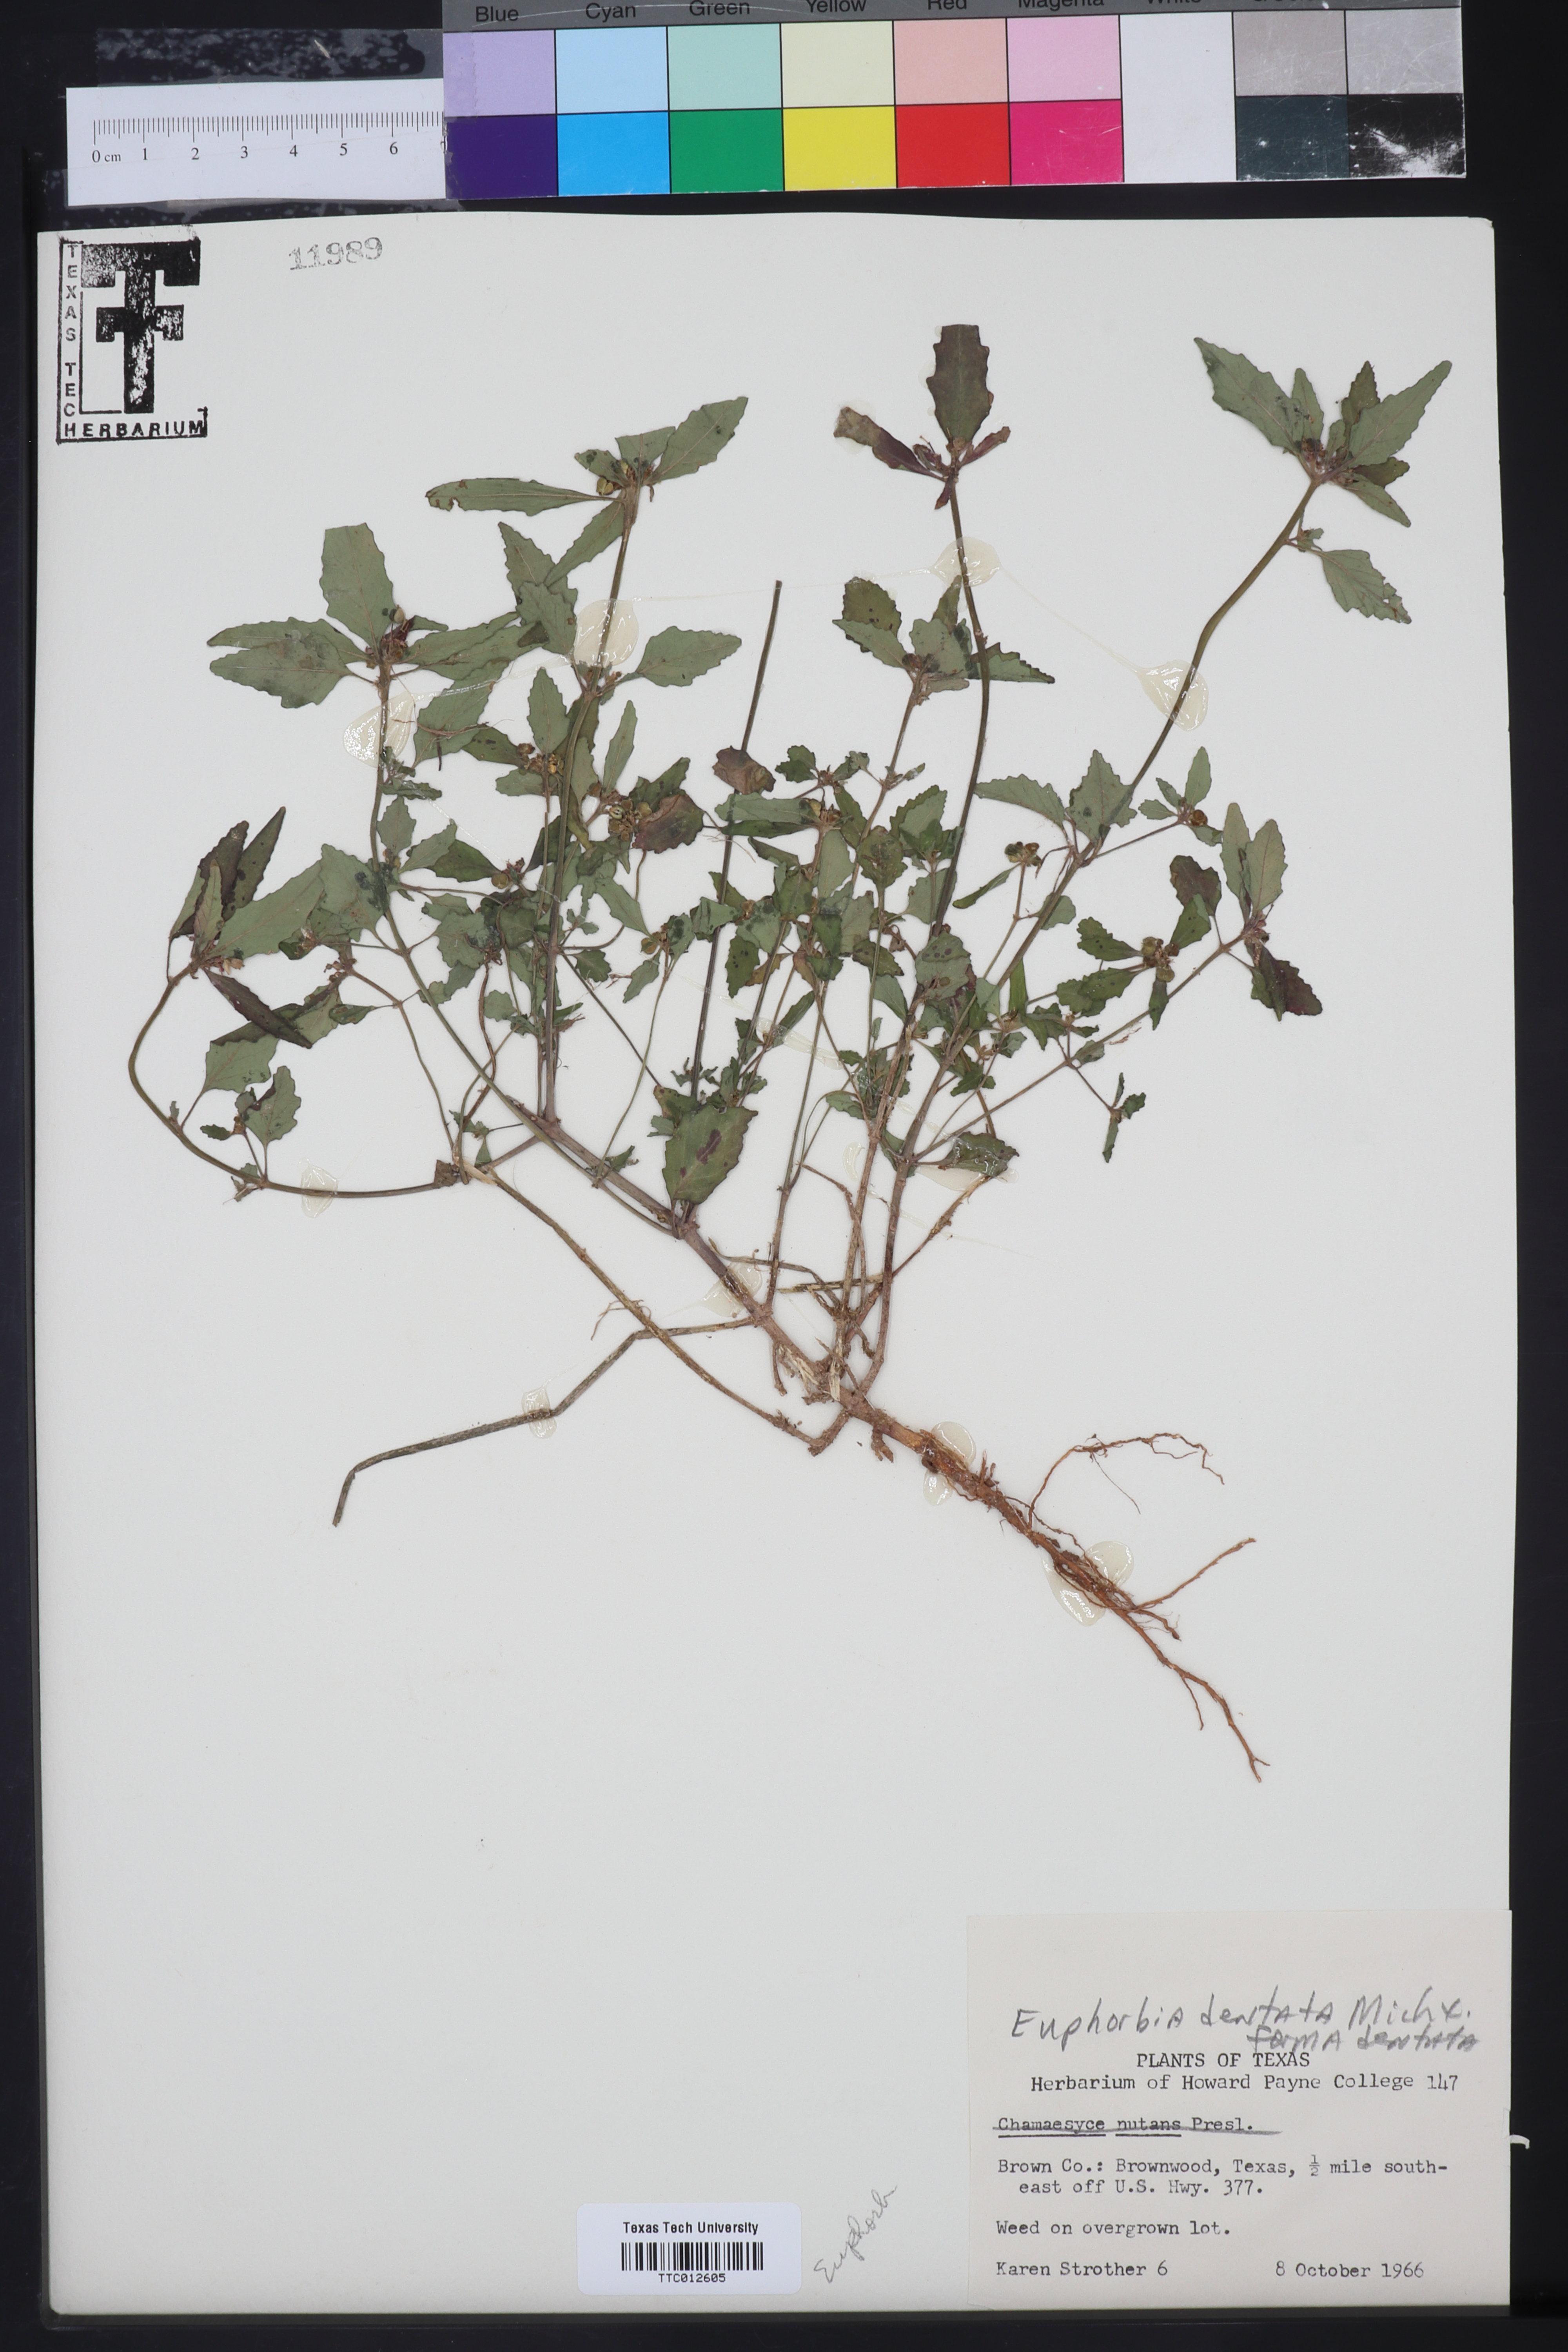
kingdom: Plantae
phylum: Tracheophyta
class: Magnoliopsida
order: Malpighiales
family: Euphorbiaceae
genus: Euphorbia
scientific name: Euphorbia dentata
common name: Dentate spurge
